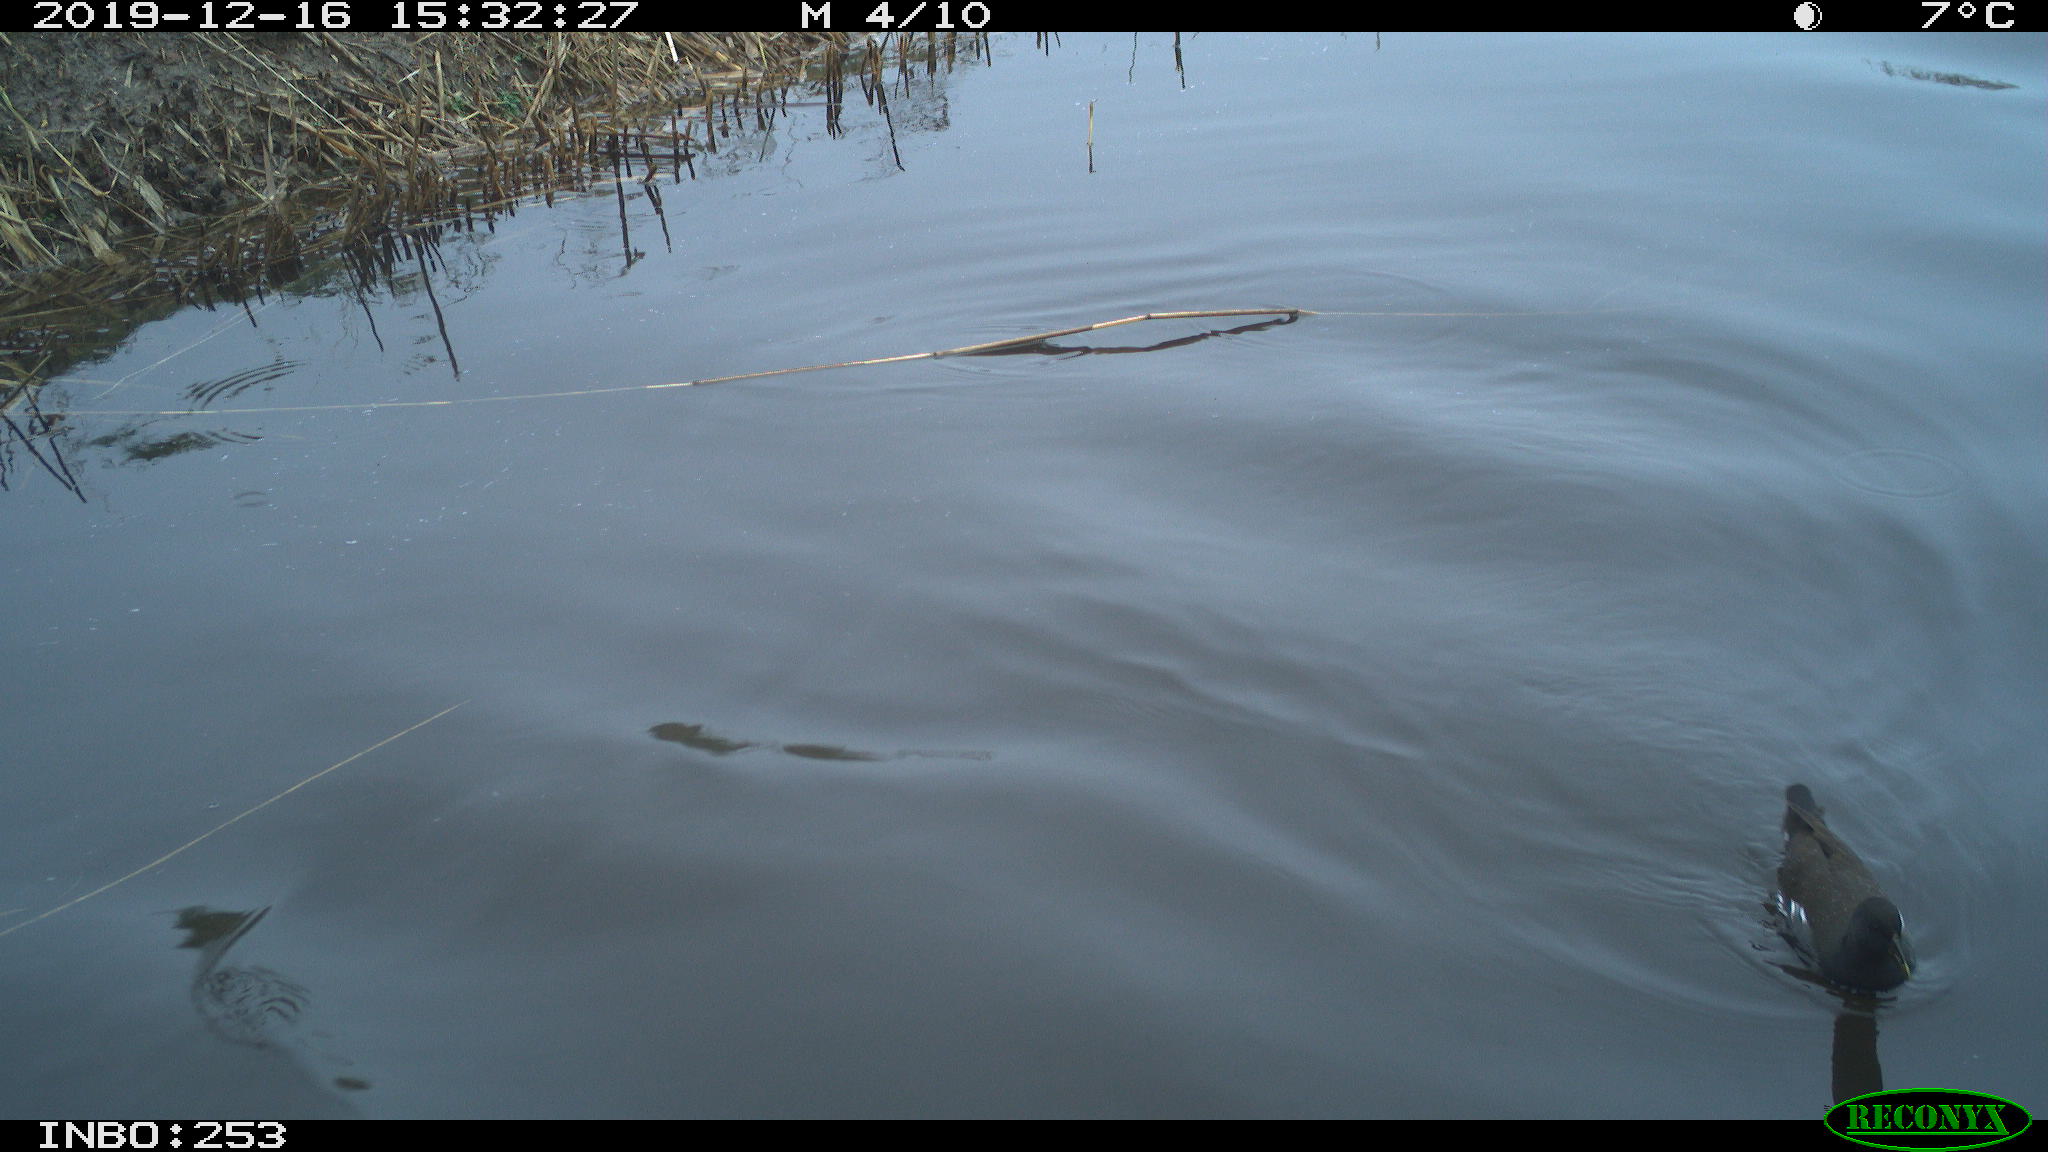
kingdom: Animalia
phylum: Chordata
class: Aves
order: Gruiformes
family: Rallidae
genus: Gallinula
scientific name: Gallinula chloropus
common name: Common moorhen
